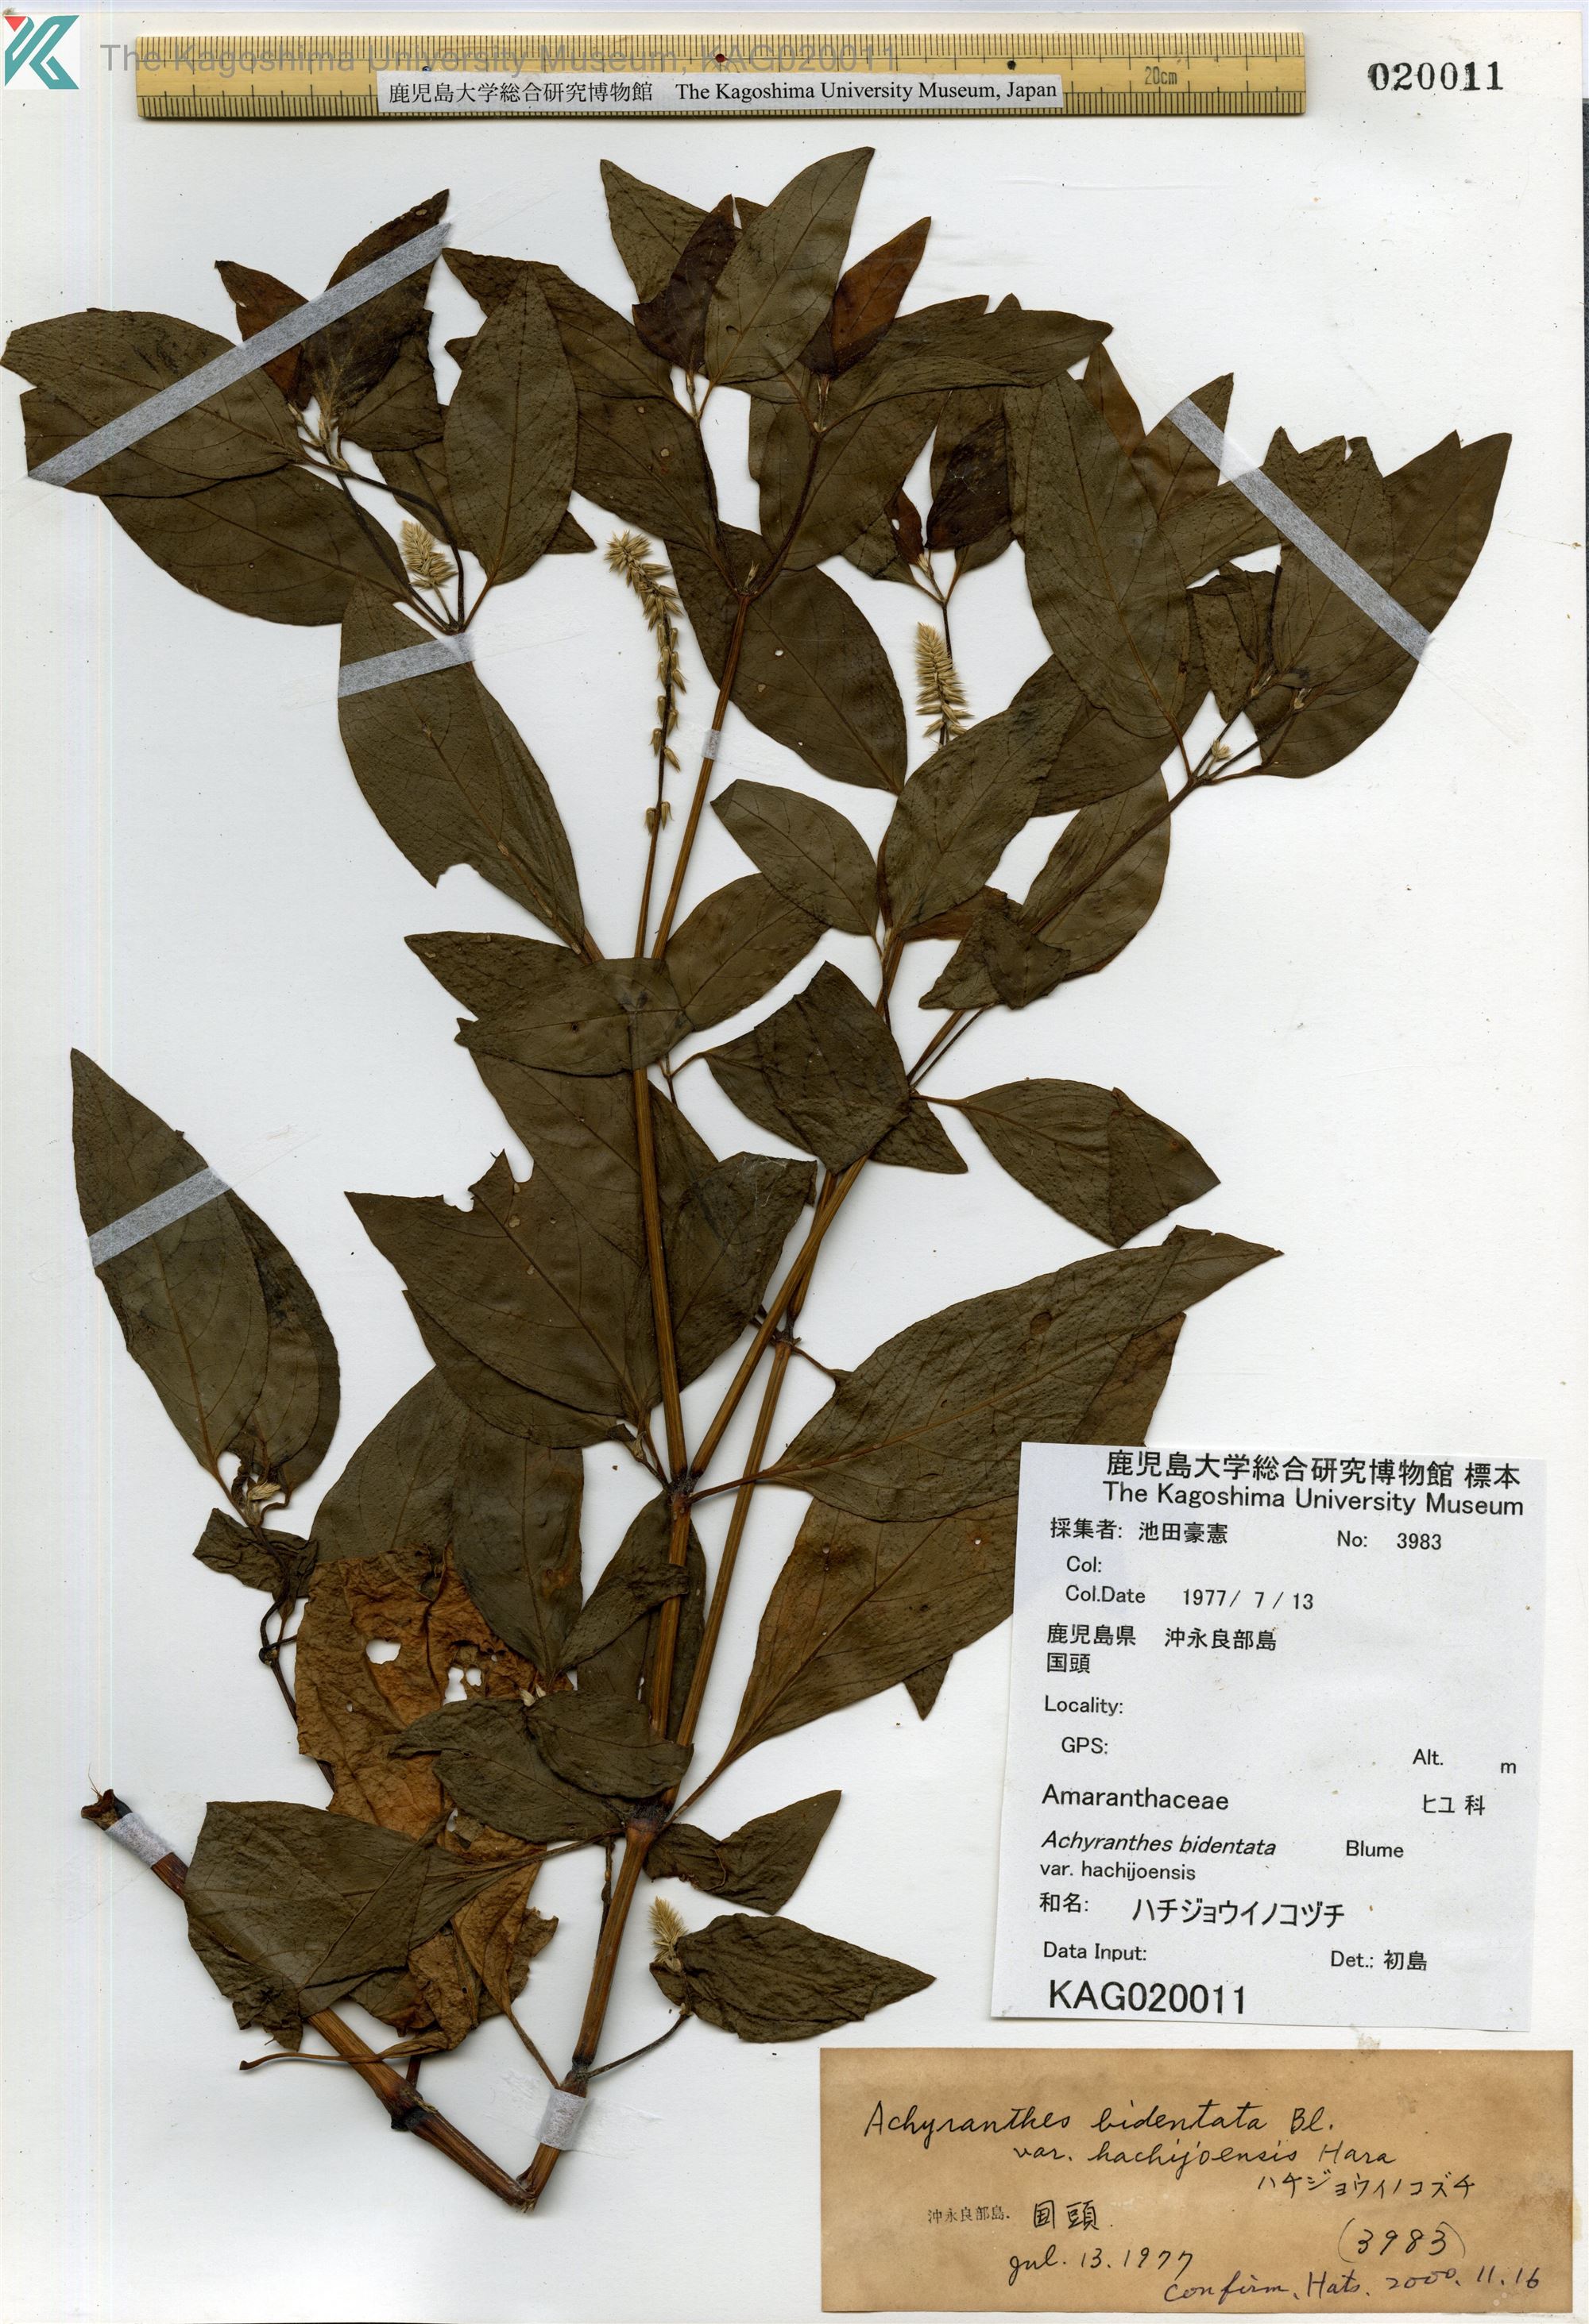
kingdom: Plantae
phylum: Tracheophyta
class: Magnoliopsida
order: Caryophyllales
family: Amaranthaceae
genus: Achyranthes
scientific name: Achyranthes bidentata
